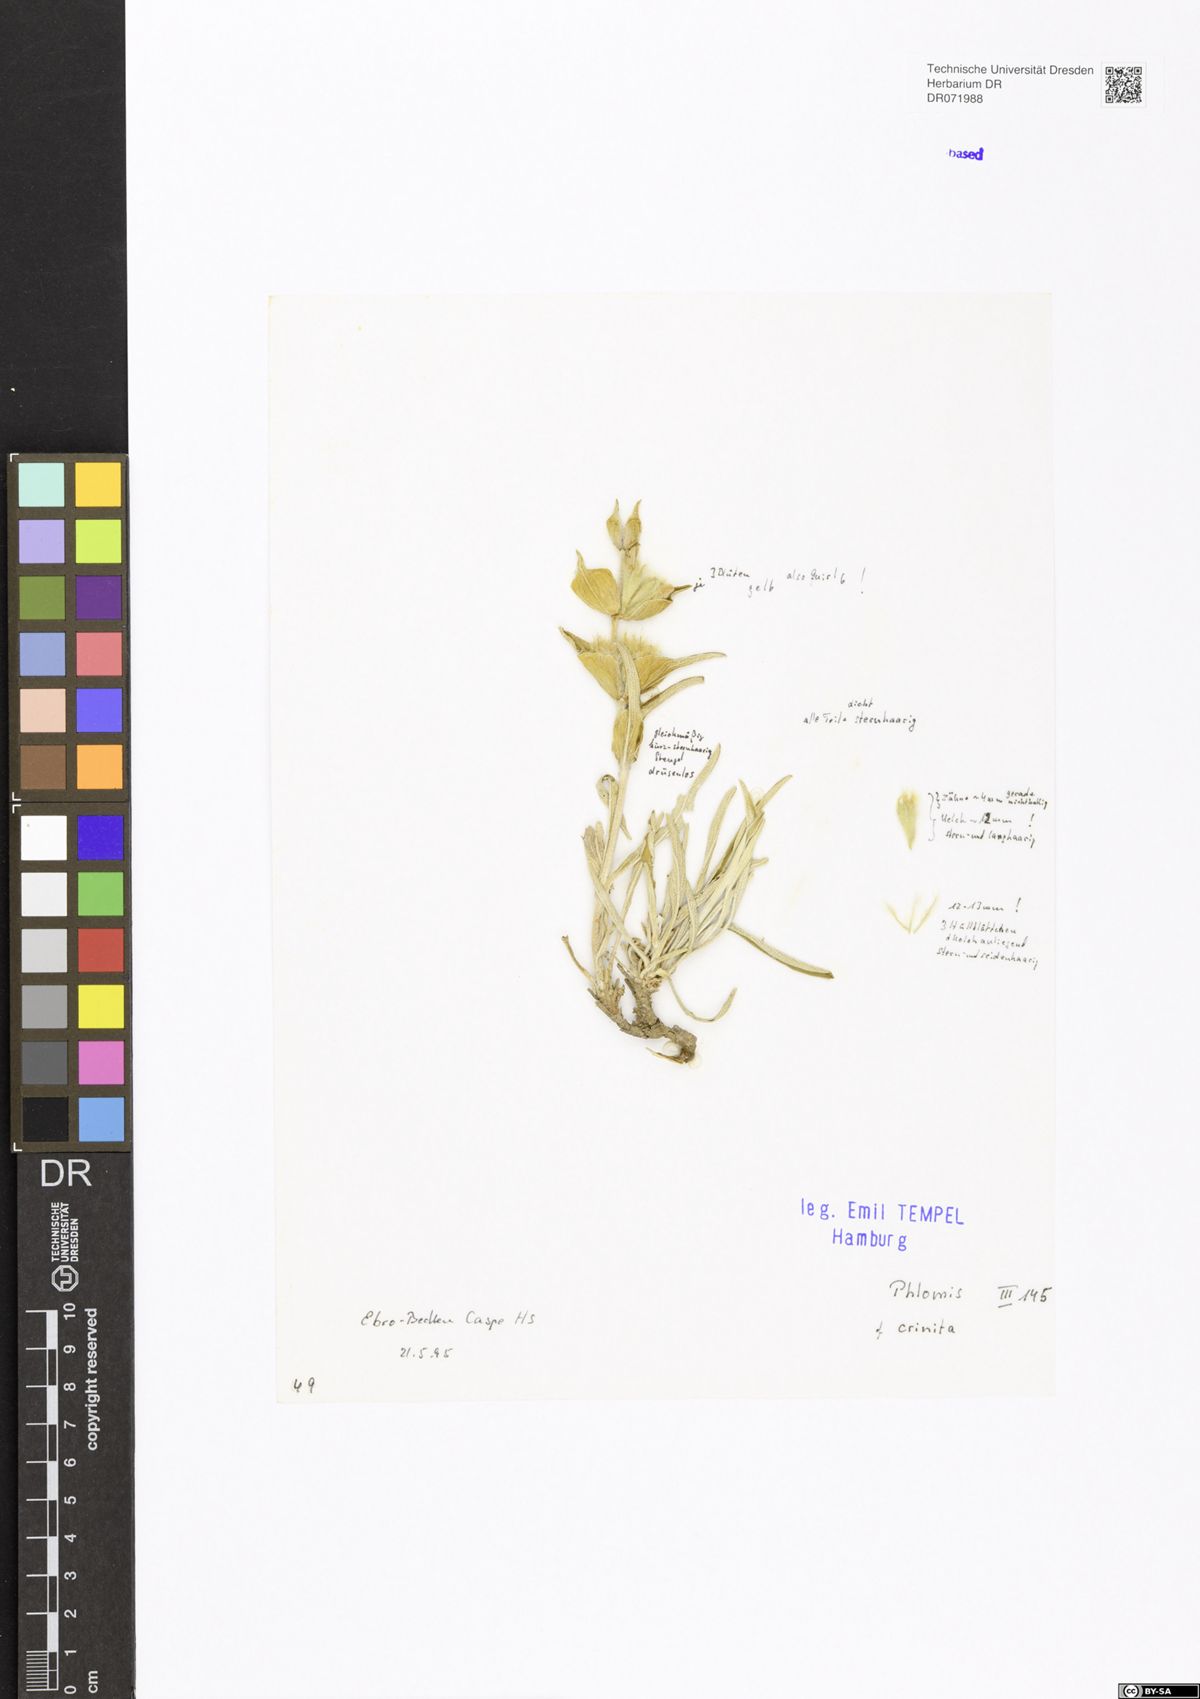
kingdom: Plantae
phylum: Tracheophyta
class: Magnoliopsida
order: Lamiales
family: Lamiaceae
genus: Phlomis
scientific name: Phlomis crinita
